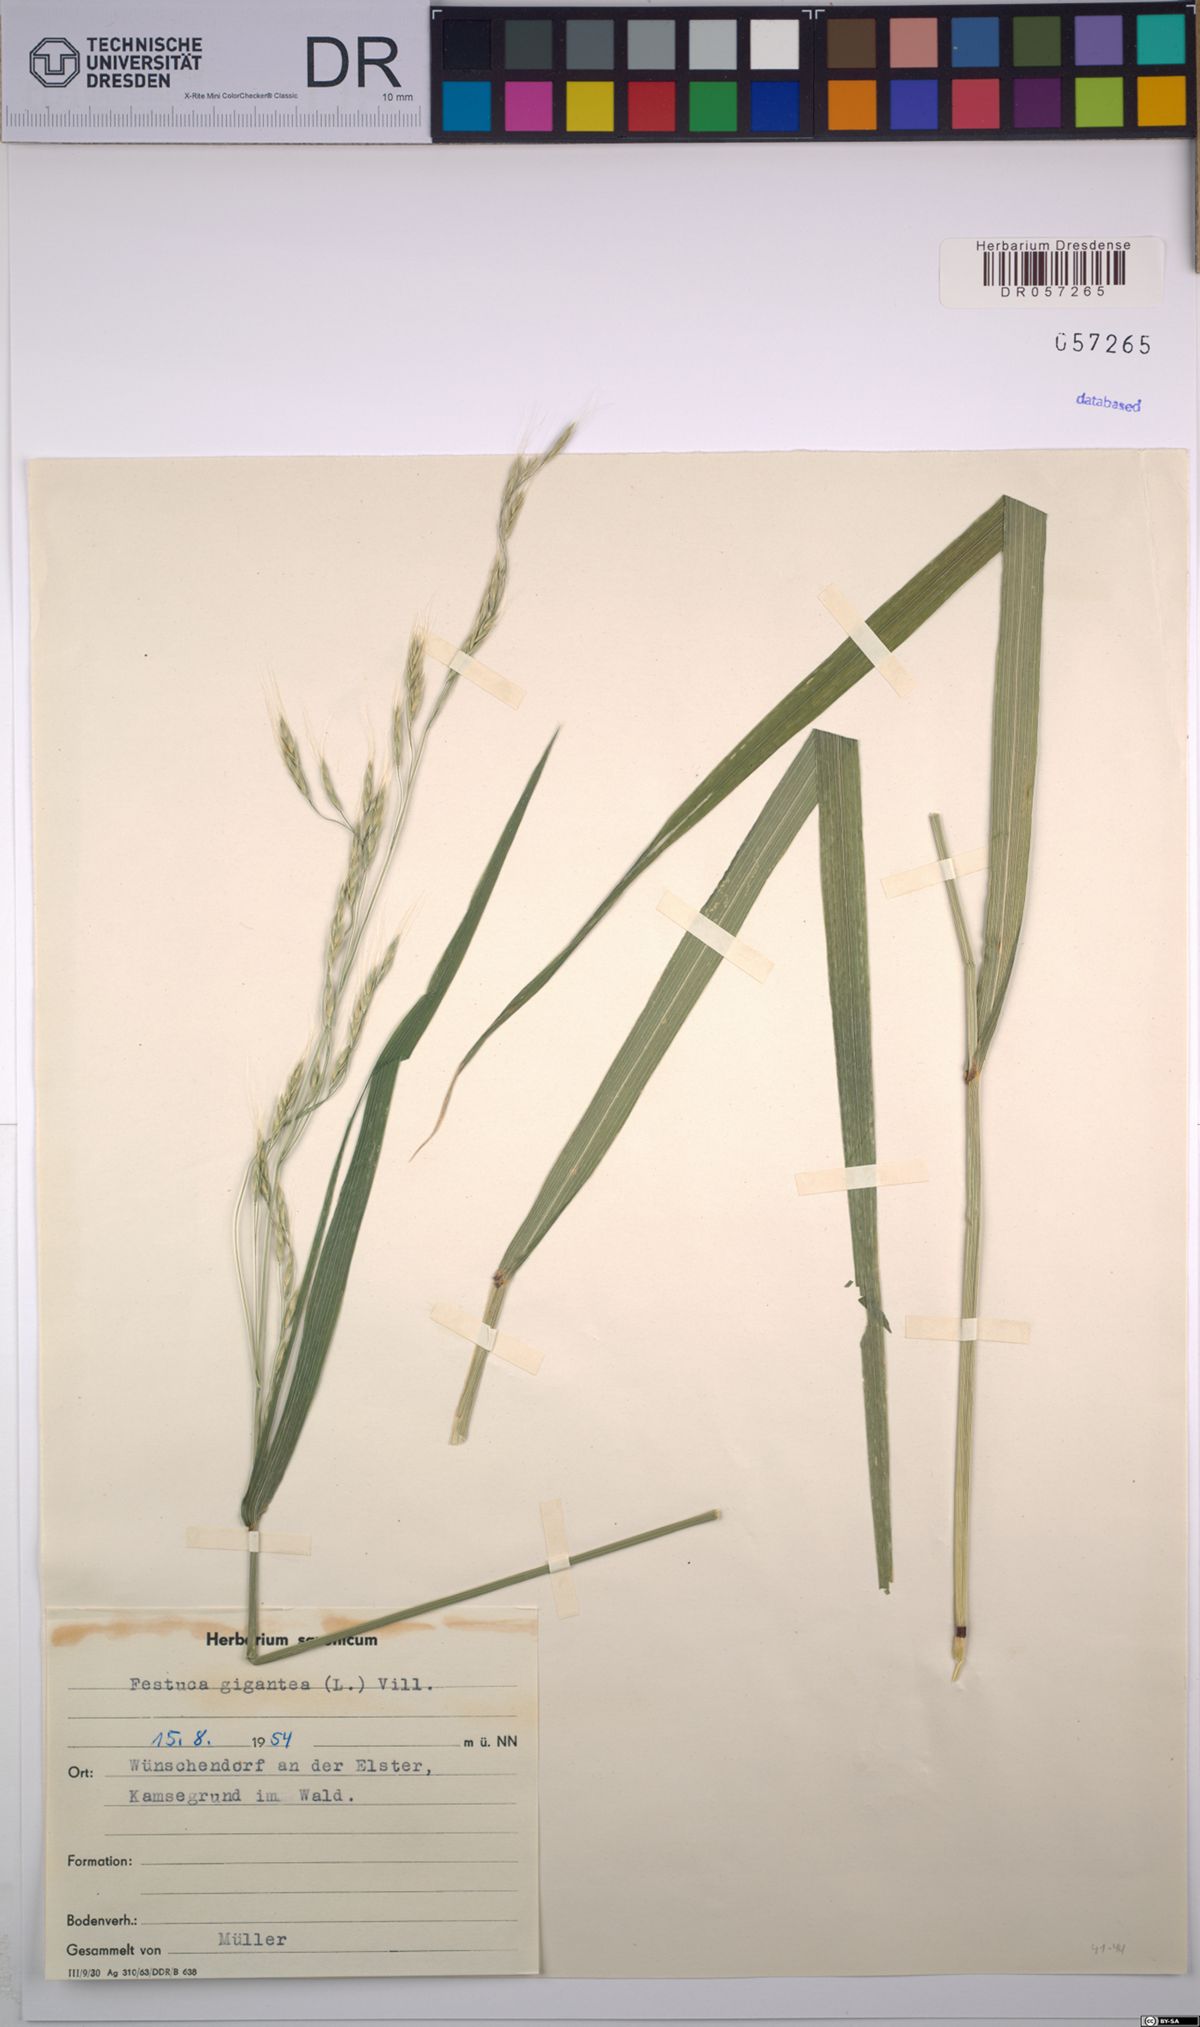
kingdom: Plantae
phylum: Tracheophyta
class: Liliopsida
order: Poales
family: Poaceae
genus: Lolium
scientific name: Lolium giganteum
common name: Giant fescue
